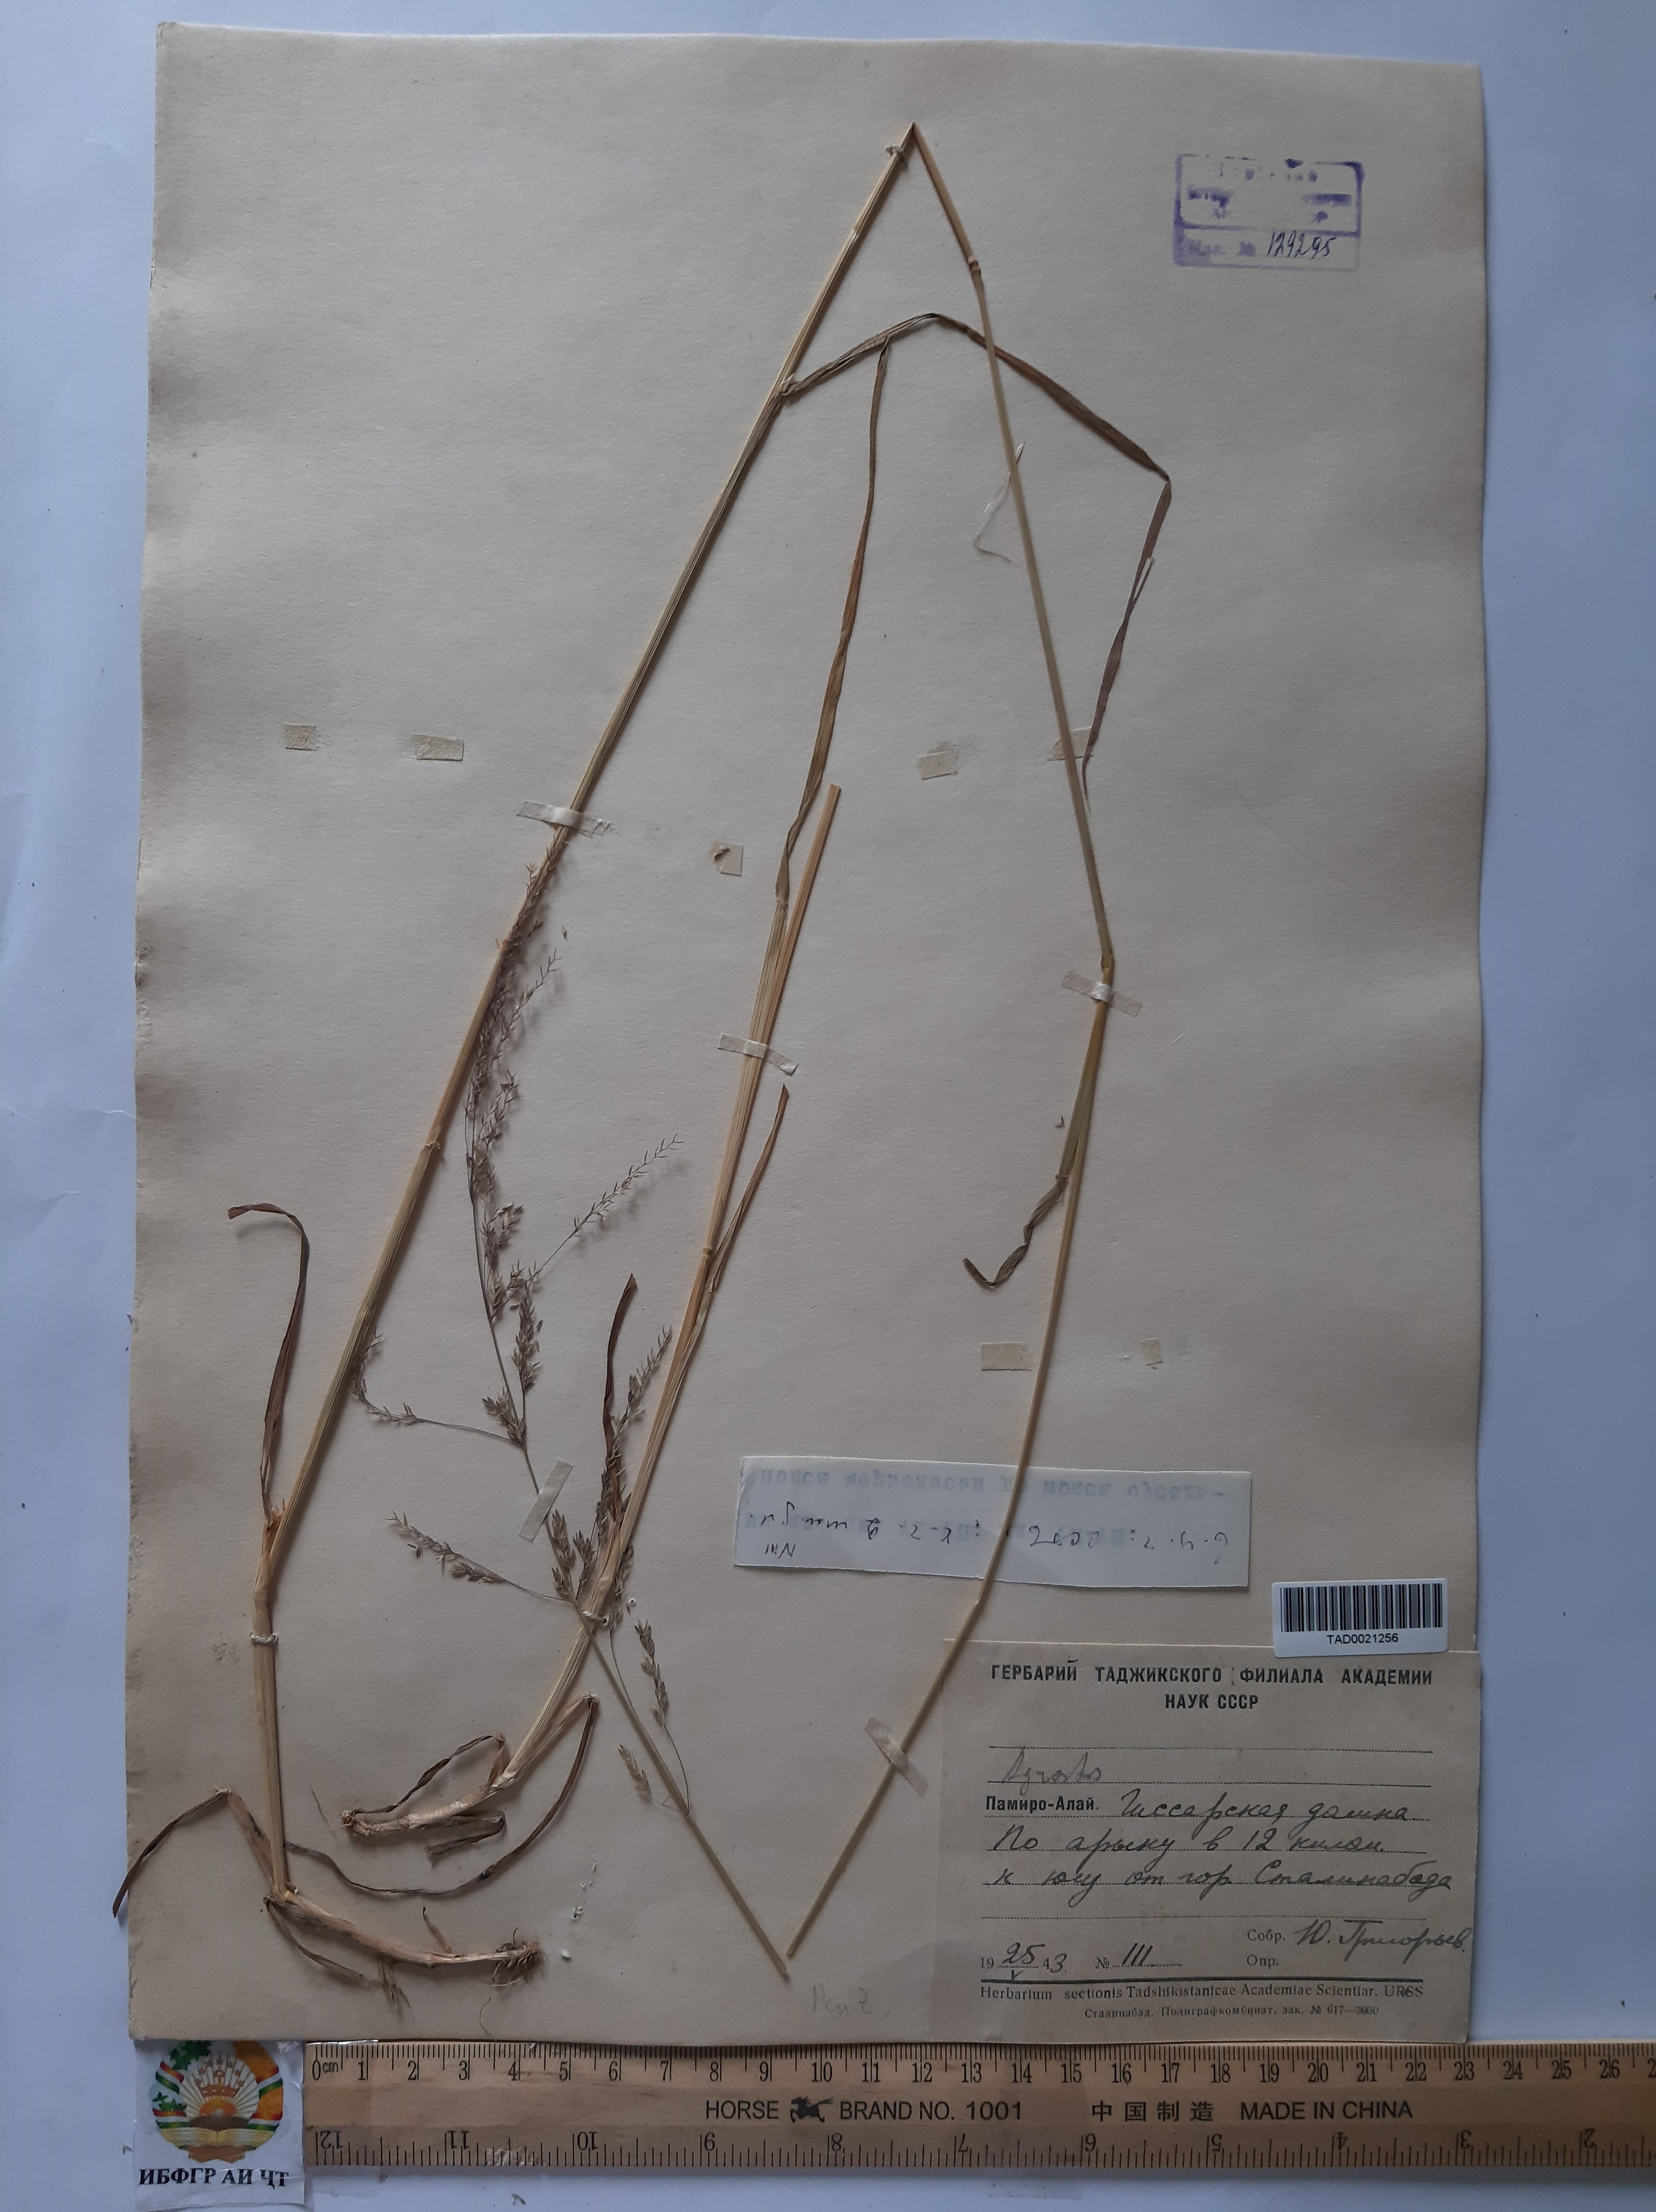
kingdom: Plantae
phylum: Tracheophyta
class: Liliopsida
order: Poales
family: Poaceae
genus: Poa
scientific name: Poa nemoralis
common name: Wood bluegrass
